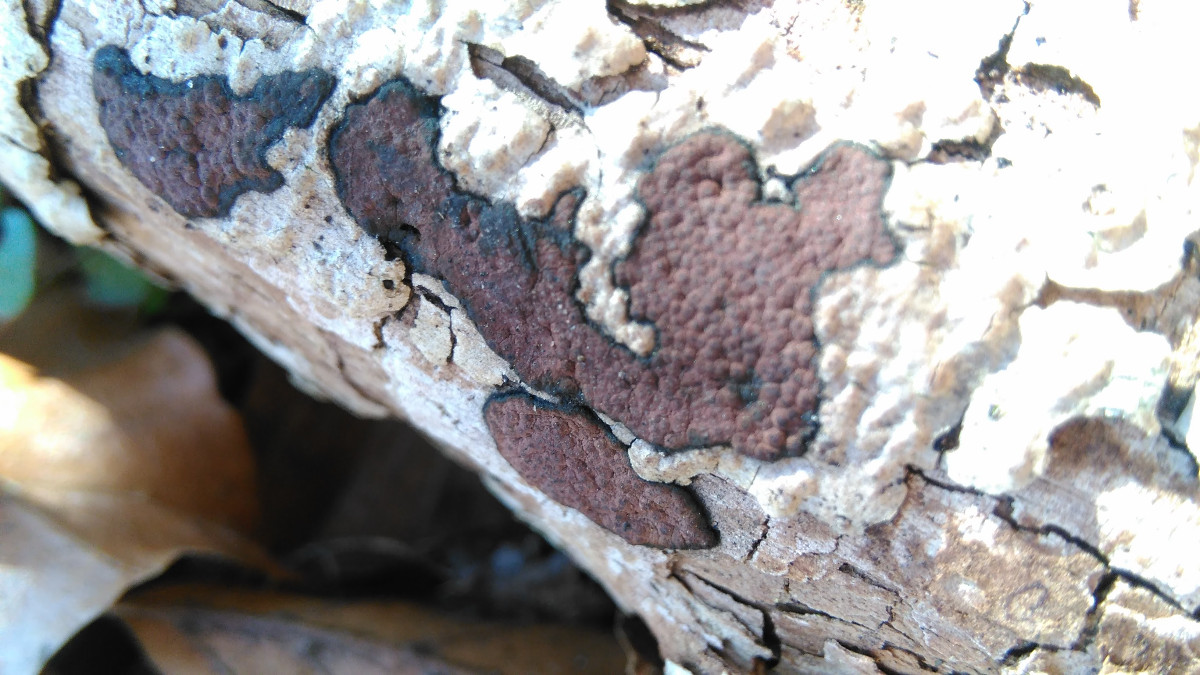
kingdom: Fungi
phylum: Ascomycota
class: Sordariomycetes
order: Xylariales
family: Hypoxylaceae
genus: Hypoxylon
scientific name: Hypoxylon petriniae
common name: nedsænket kulbær
